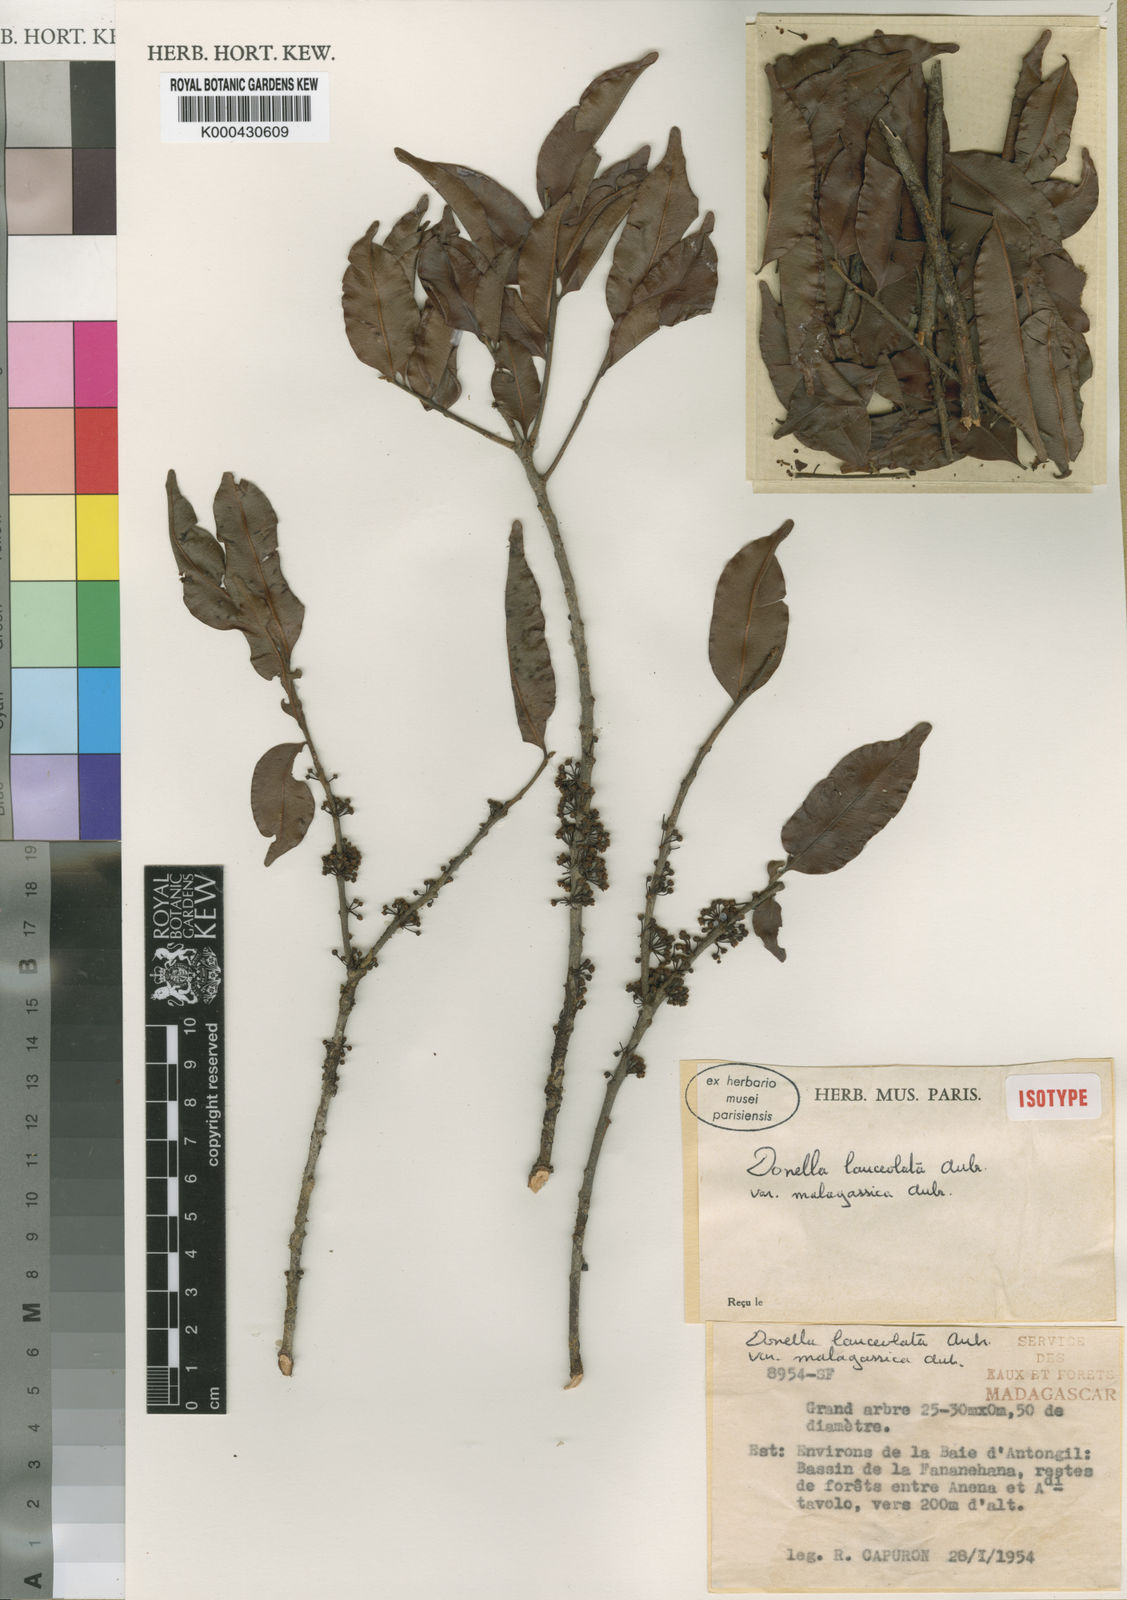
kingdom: Plantae
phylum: Tracheophyta
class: Magnoliopsida
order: Ericales
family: Sapotaceae
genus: Chrysophyllum
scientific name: Chrysophyllum
